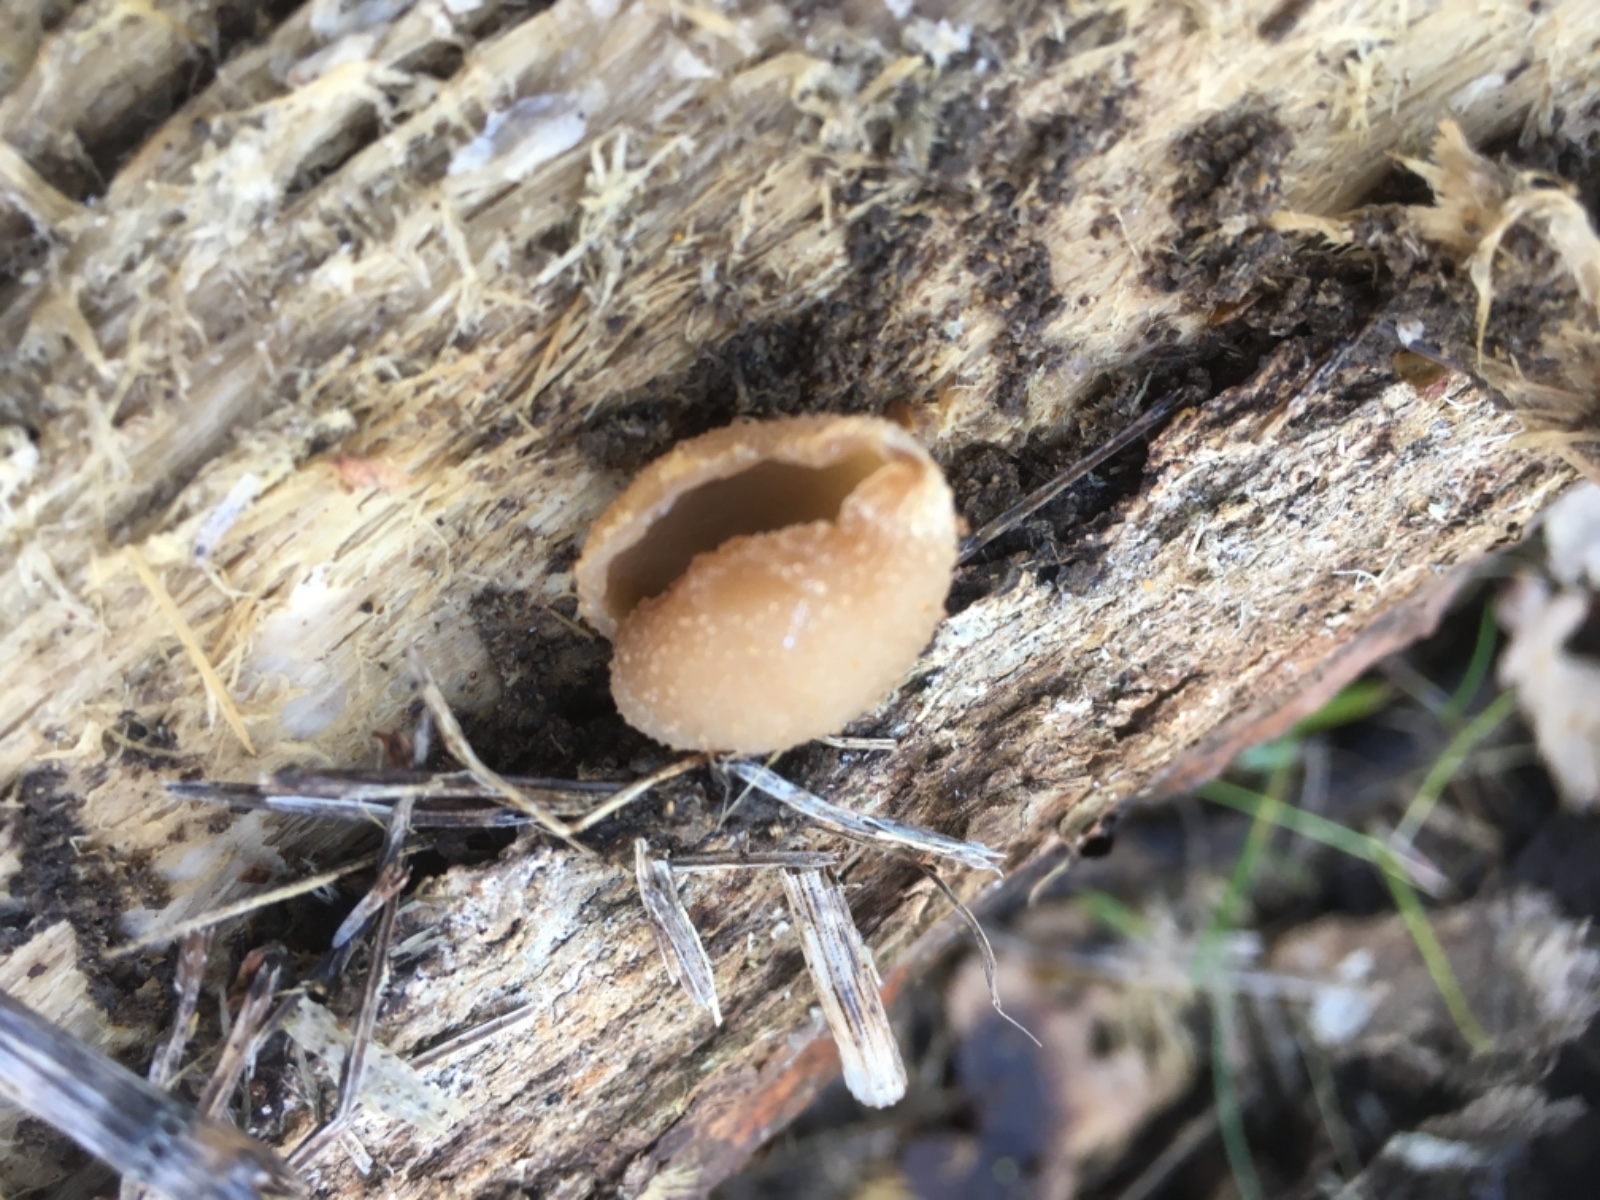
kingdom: Fungi
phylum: Ascomycota
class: Pezizomycetes
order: Pezizales
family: Pezizaceae
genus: Peziza
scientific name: Peziza
